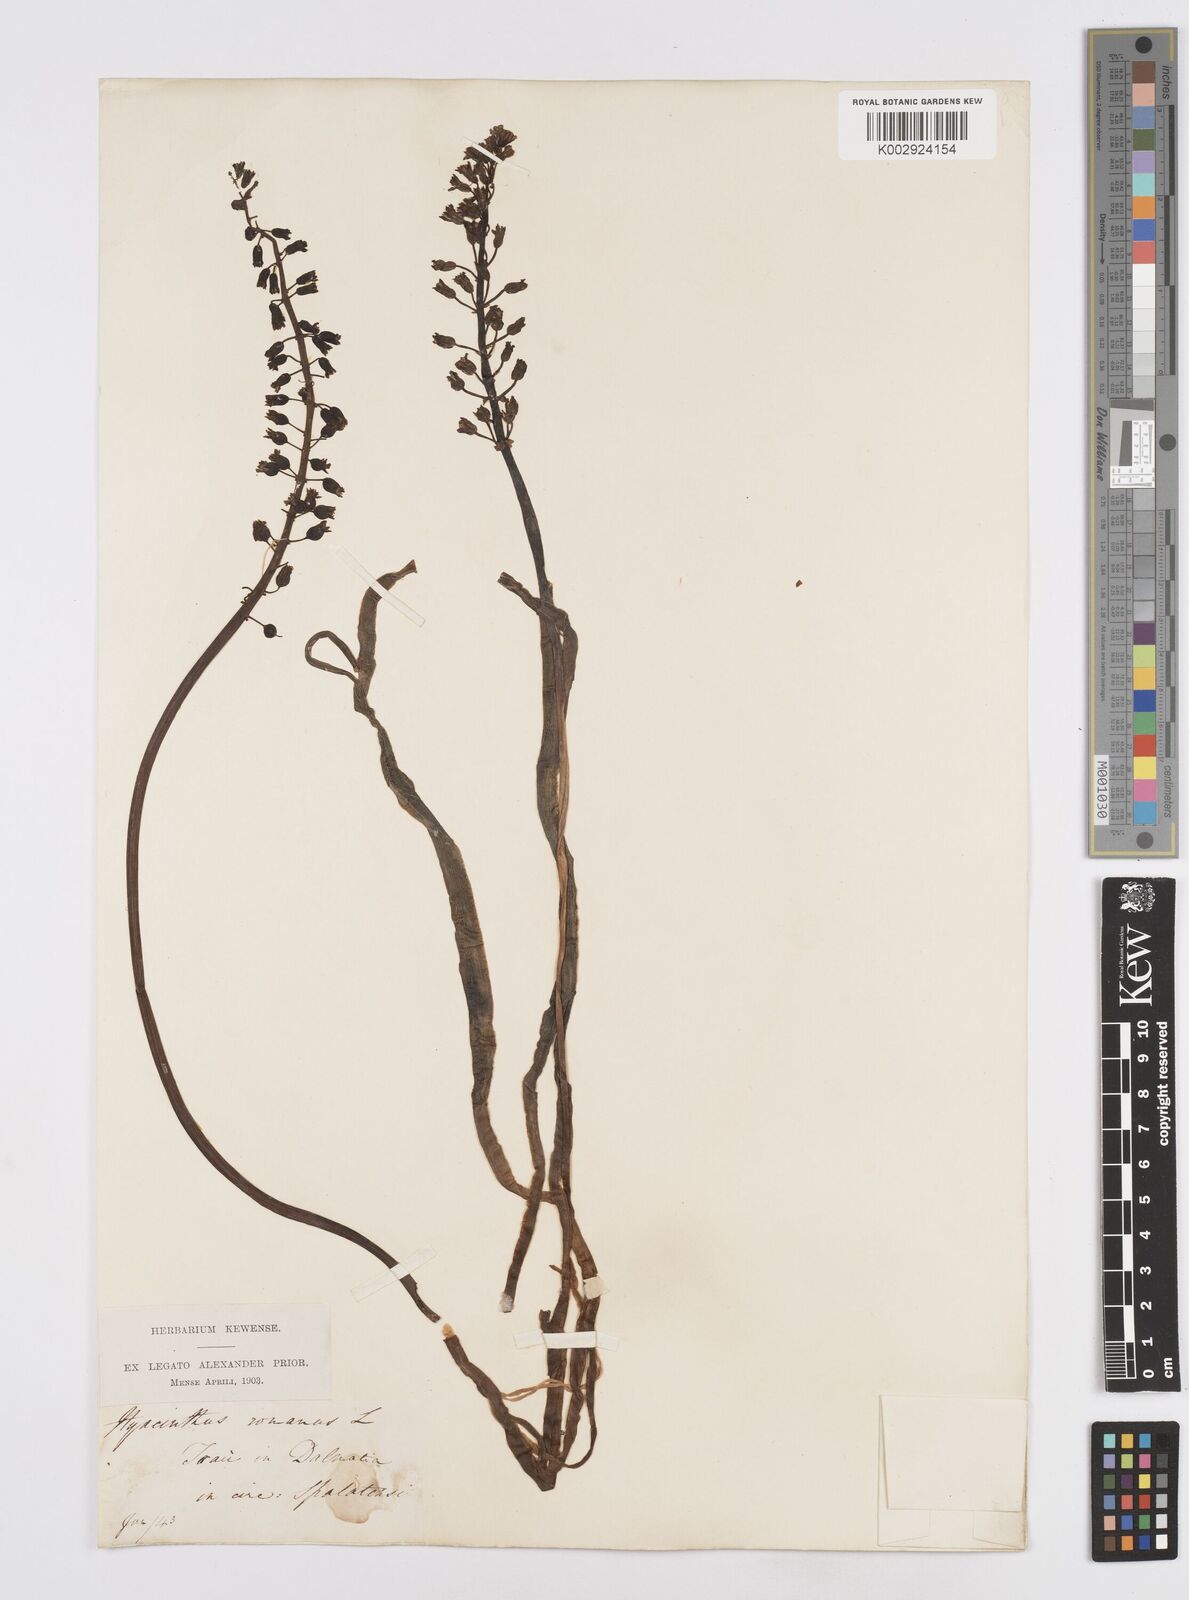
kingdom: Plantae
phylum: Tracheophyta
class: Liliopsida
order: Asparagales
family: Asparagaceae
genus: Bellevalia
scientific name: Bellevalia
